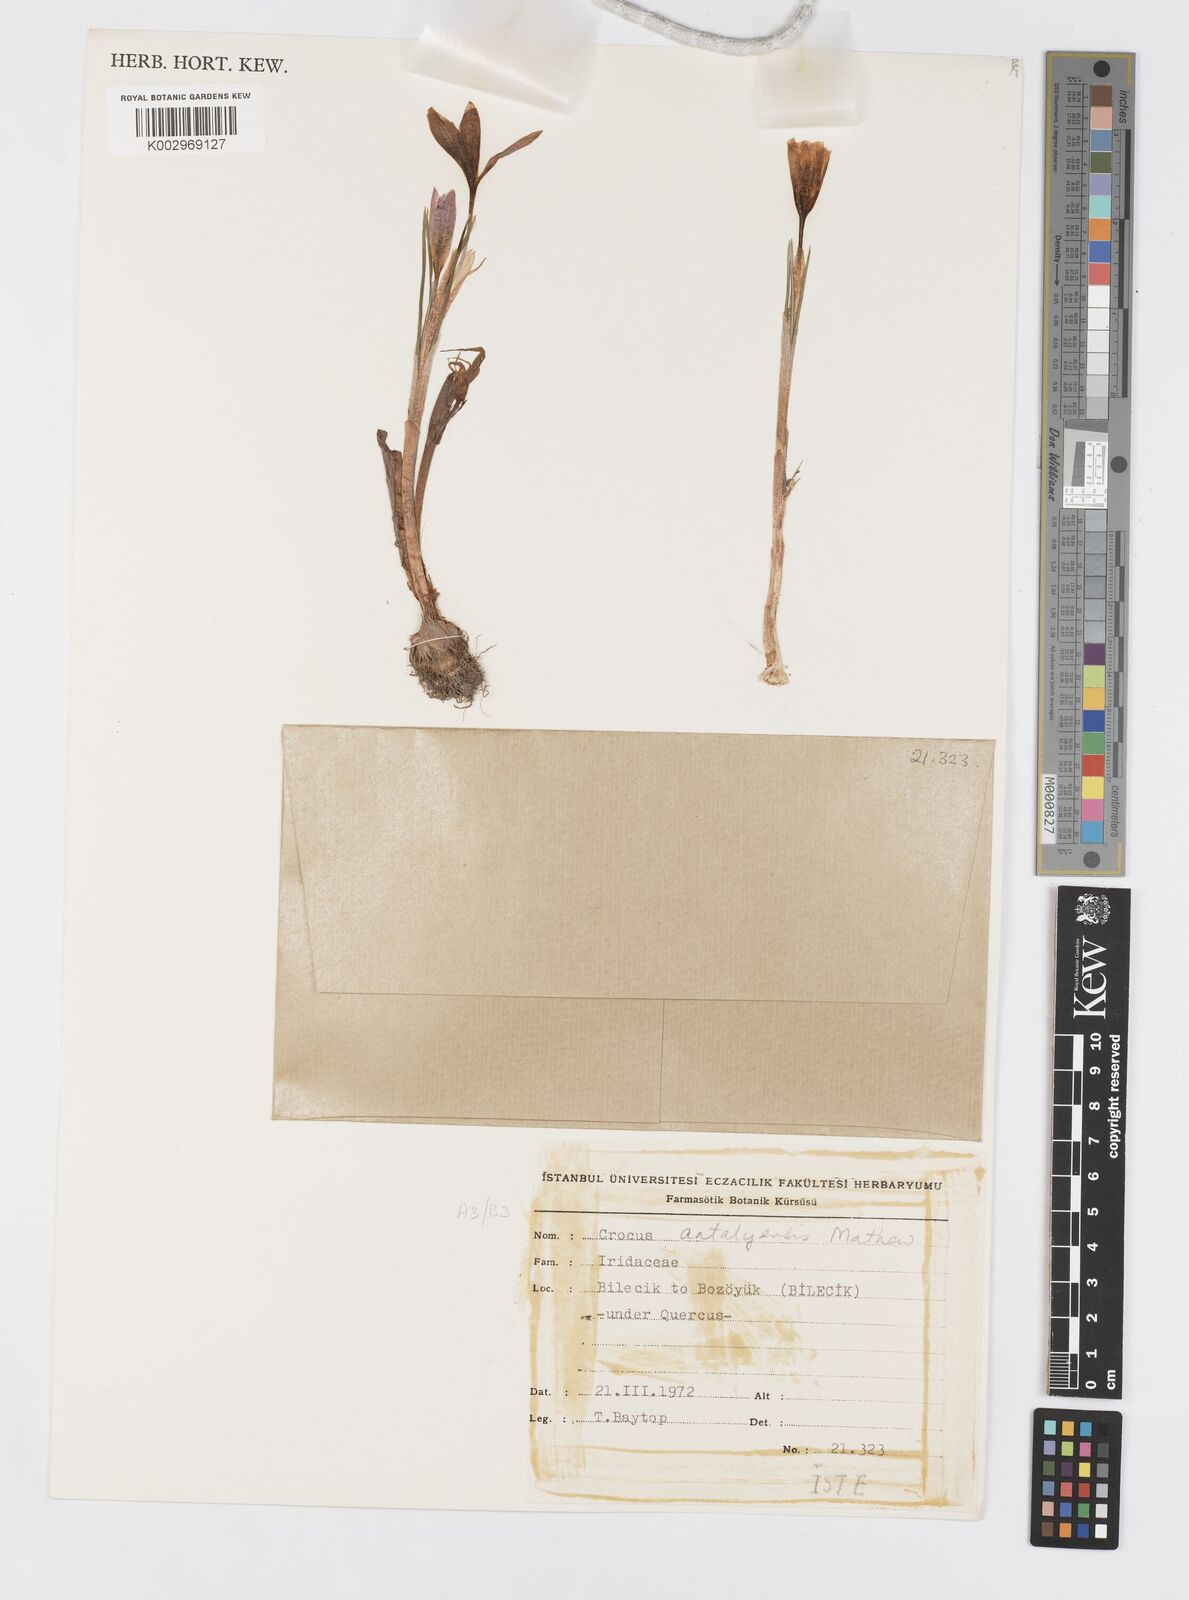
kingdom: Plantae
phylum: Tracheophyta
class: Liliopsida
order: Asparagales
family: Iridaceae
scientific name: Iridaceae
